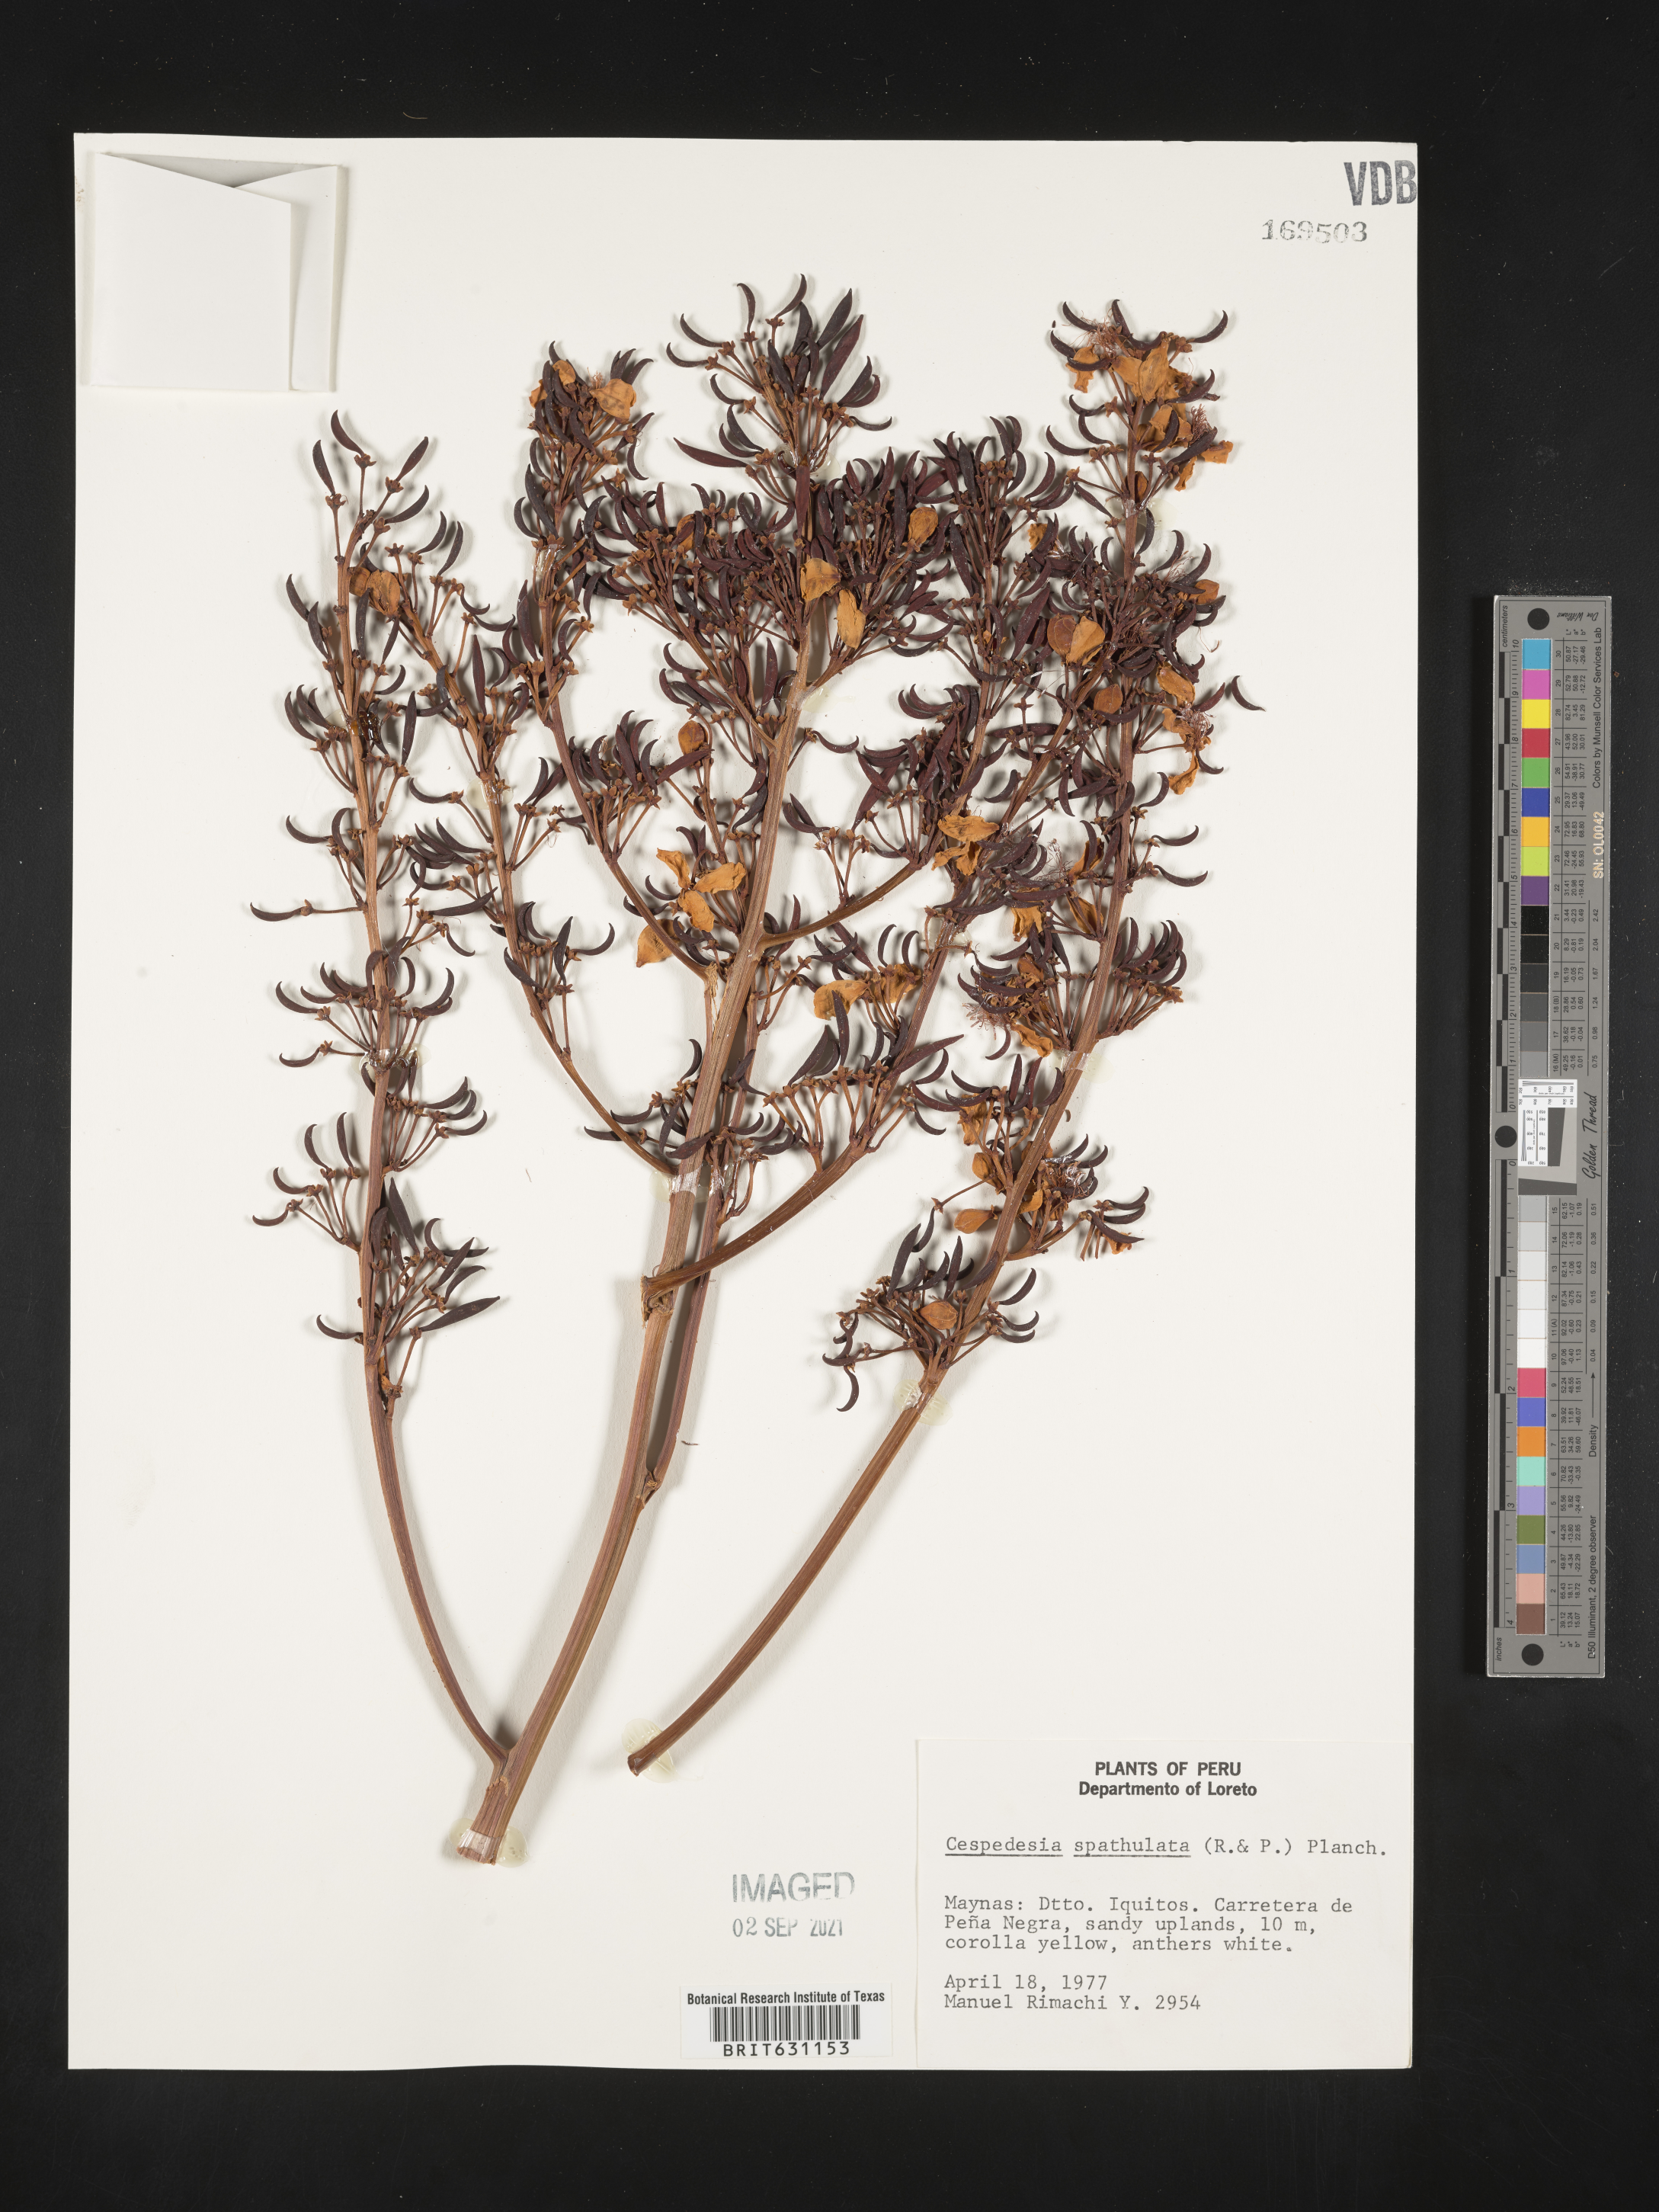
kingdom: Plantae
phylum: Tracheophyta
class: Magnoliopsida
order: Malpighiales
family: Ochnaceae
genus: Cespedesia
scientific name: Cespedesia spathulata
